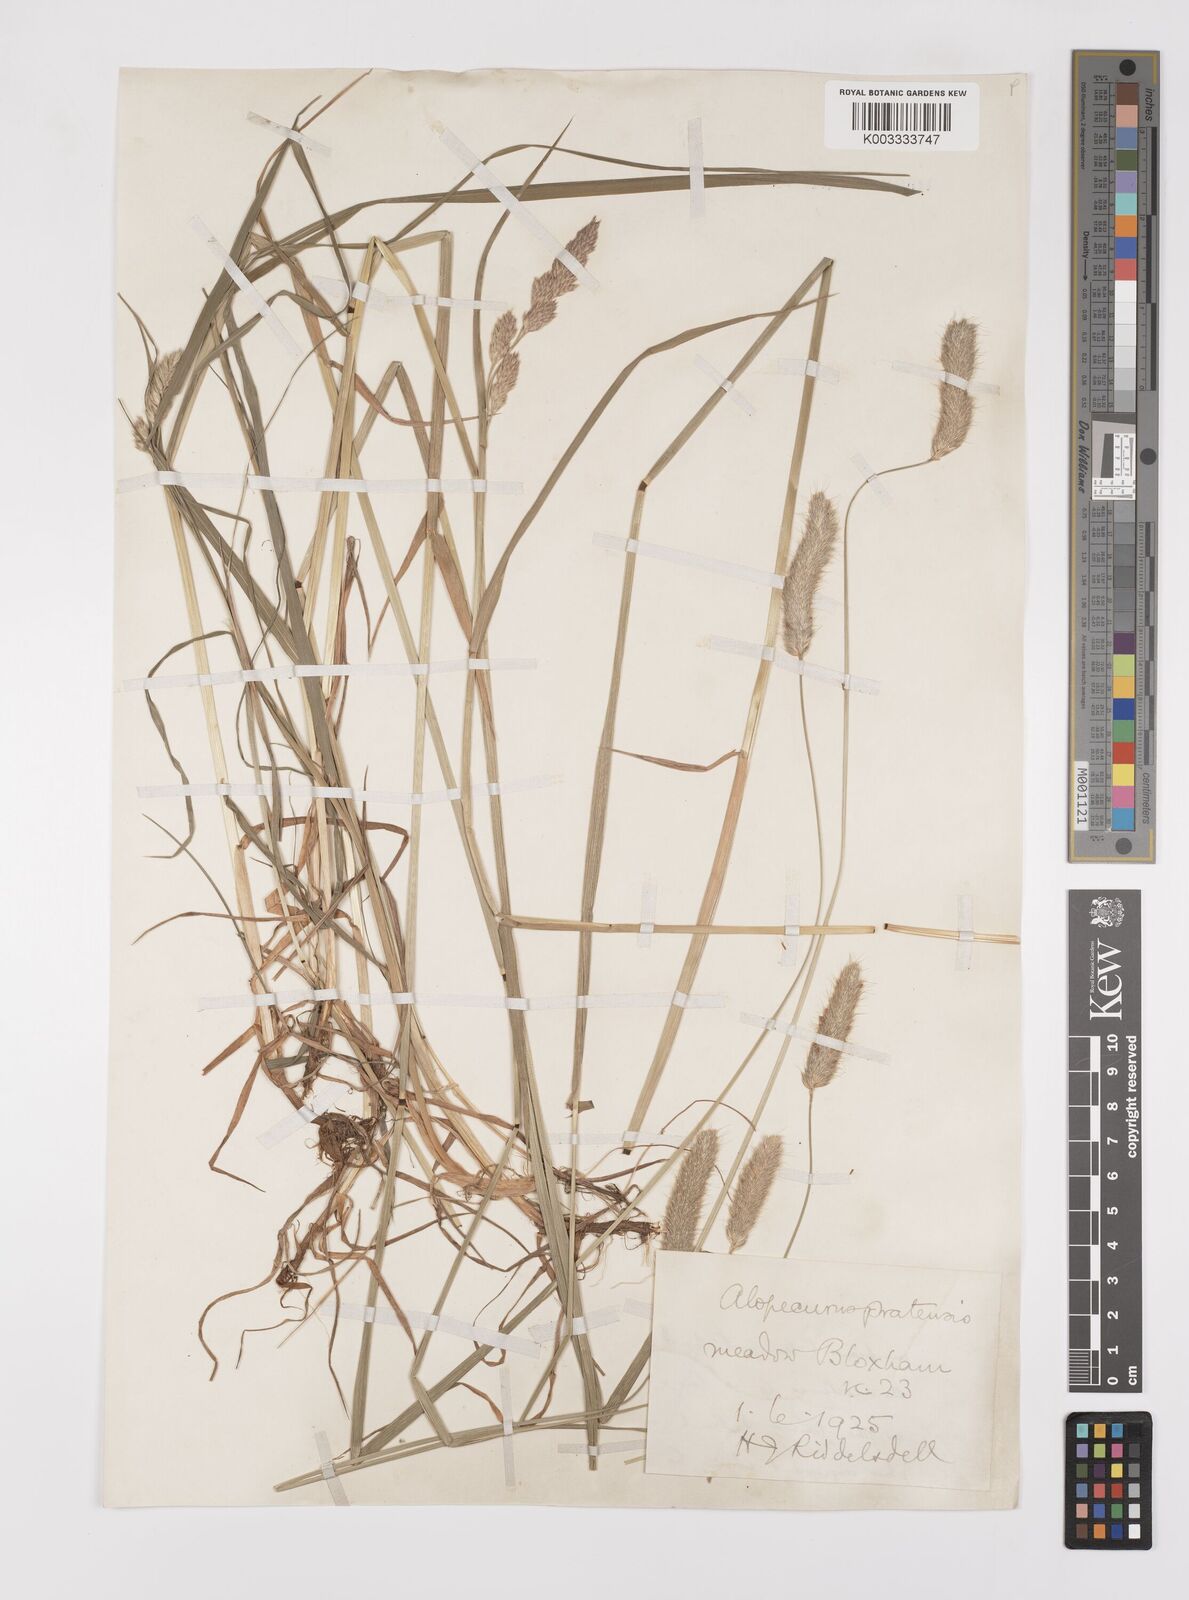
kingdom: Plantae
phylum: Tracheophyta
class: Liliopsida
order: Poales
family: Poaceae
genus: Alopecurus
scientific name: Alopecurus pratensis
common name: Meadow foxtail
